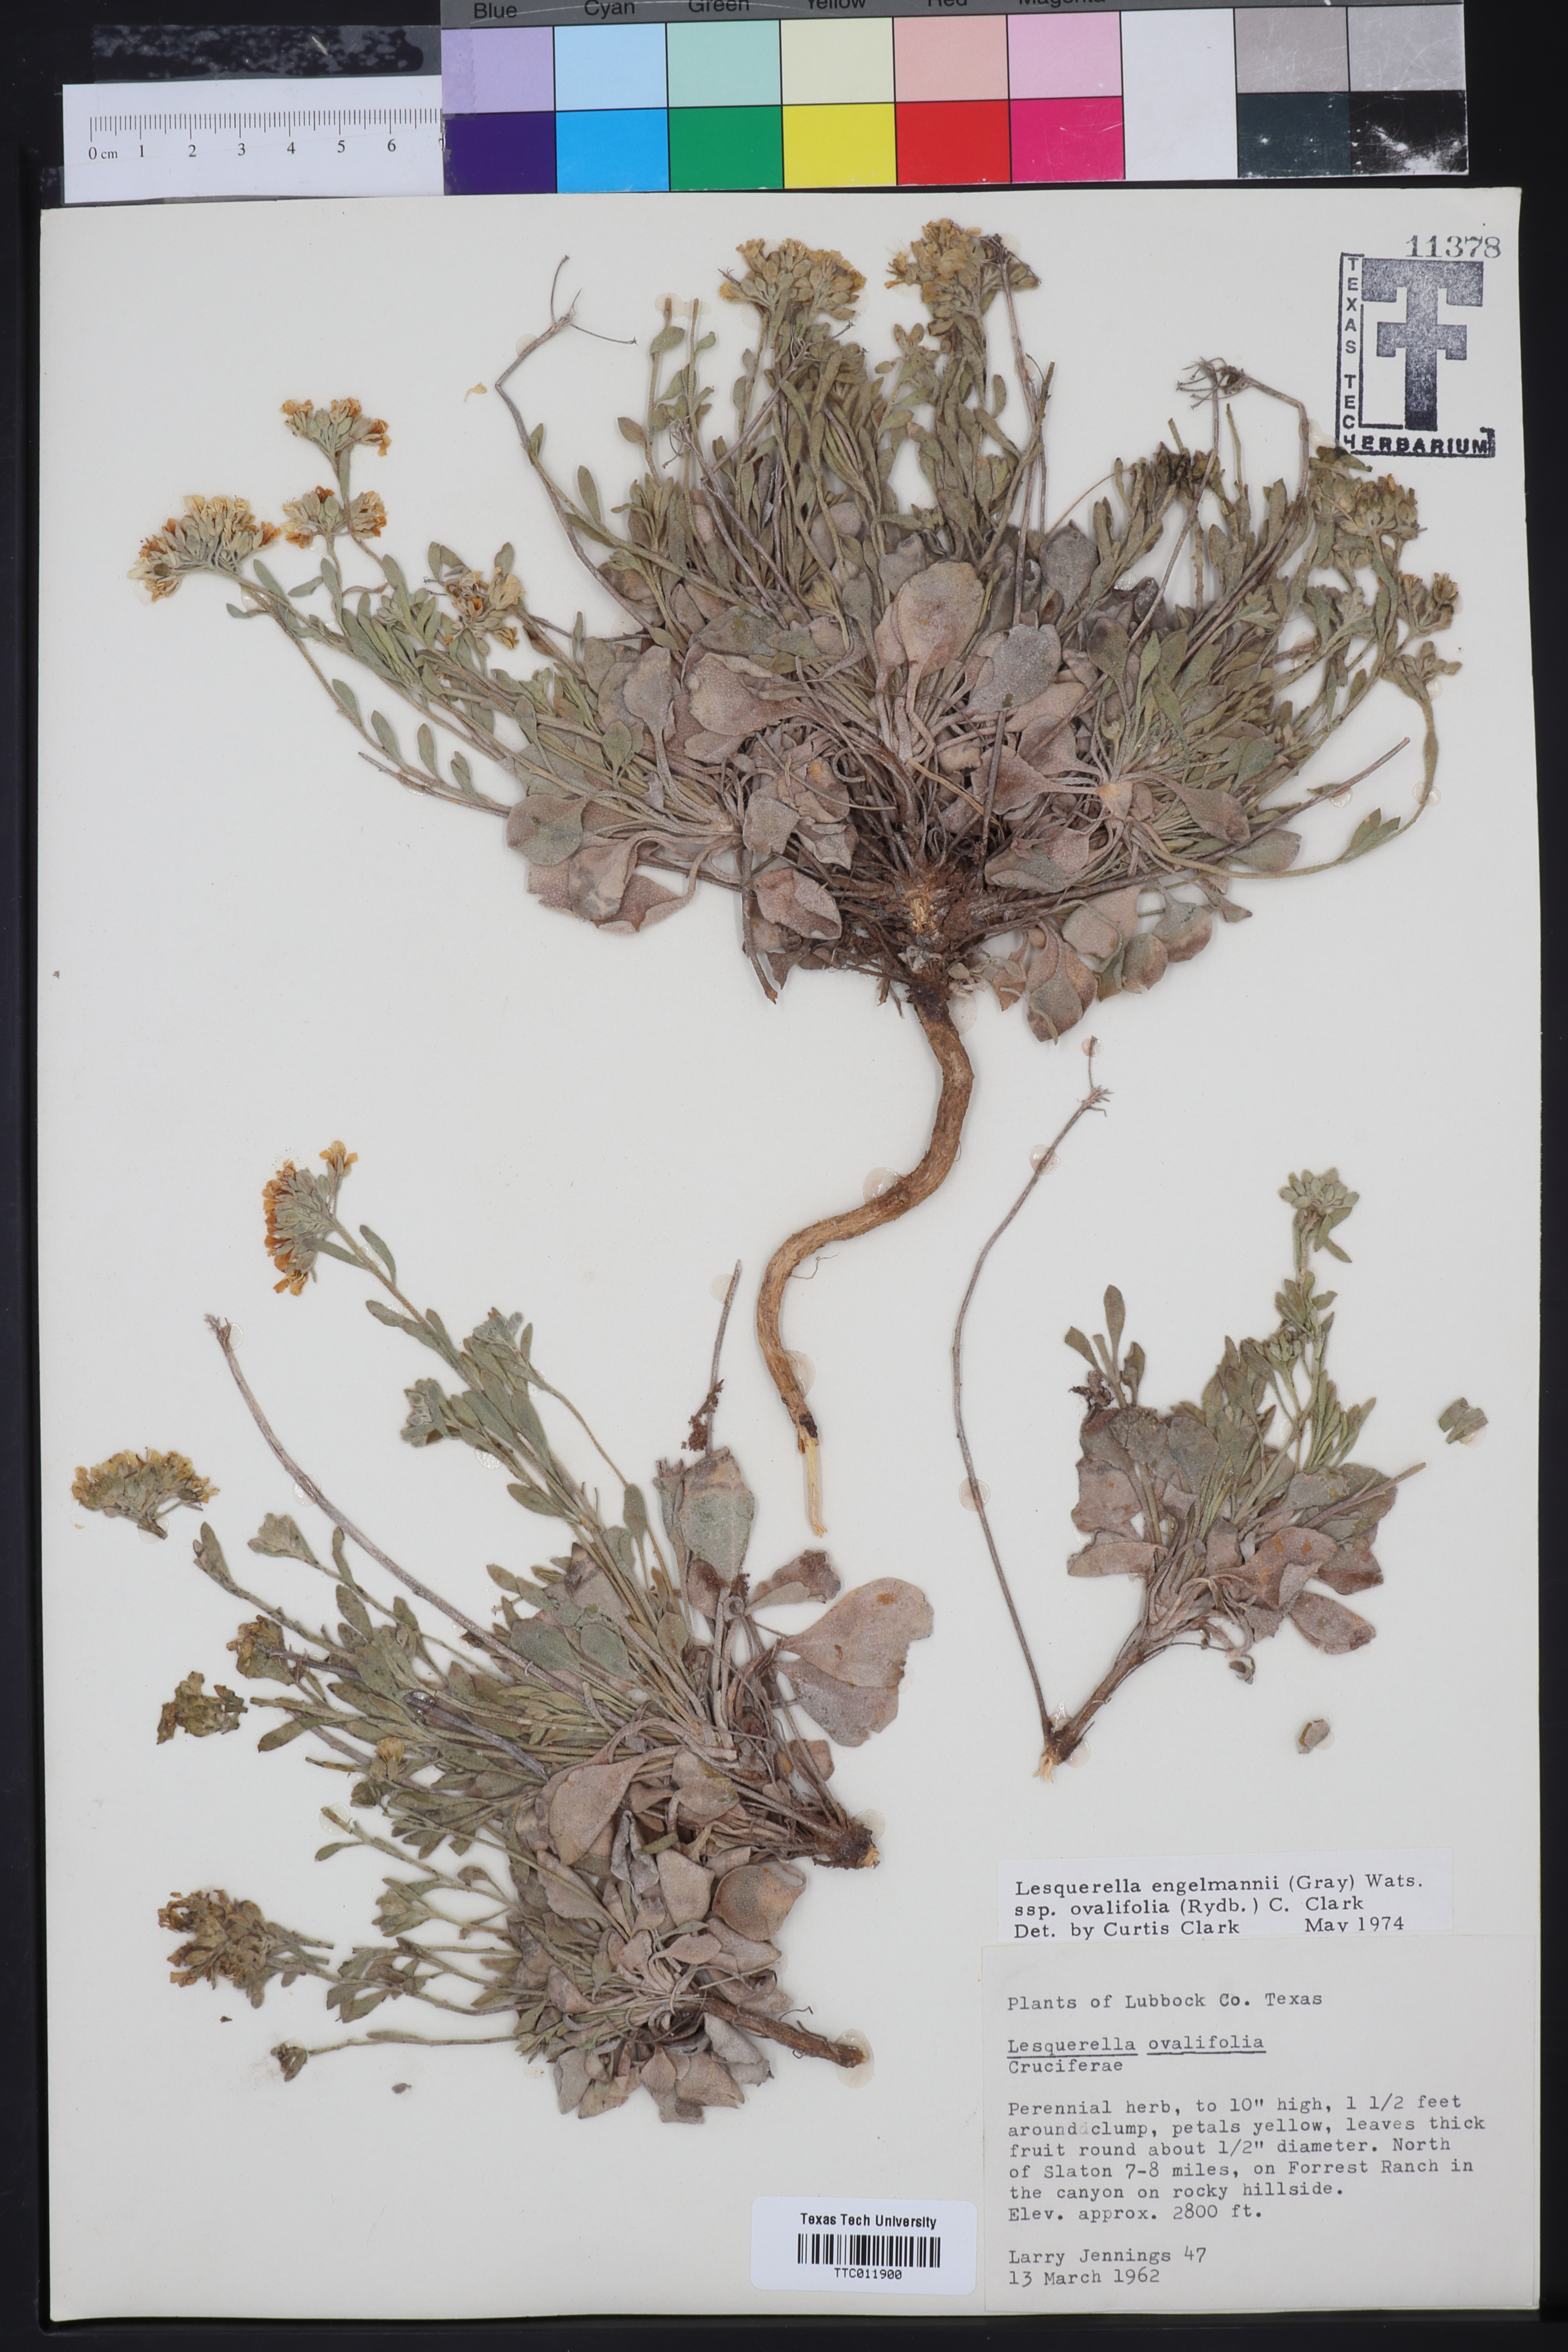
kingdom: Plantae
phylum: Tracheophyta
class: Magnoliopsida
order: Brassicales
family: Brassicaceae
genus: Physaria
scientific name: Physaria ovalifolia
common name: Round-leaf bladderpod
